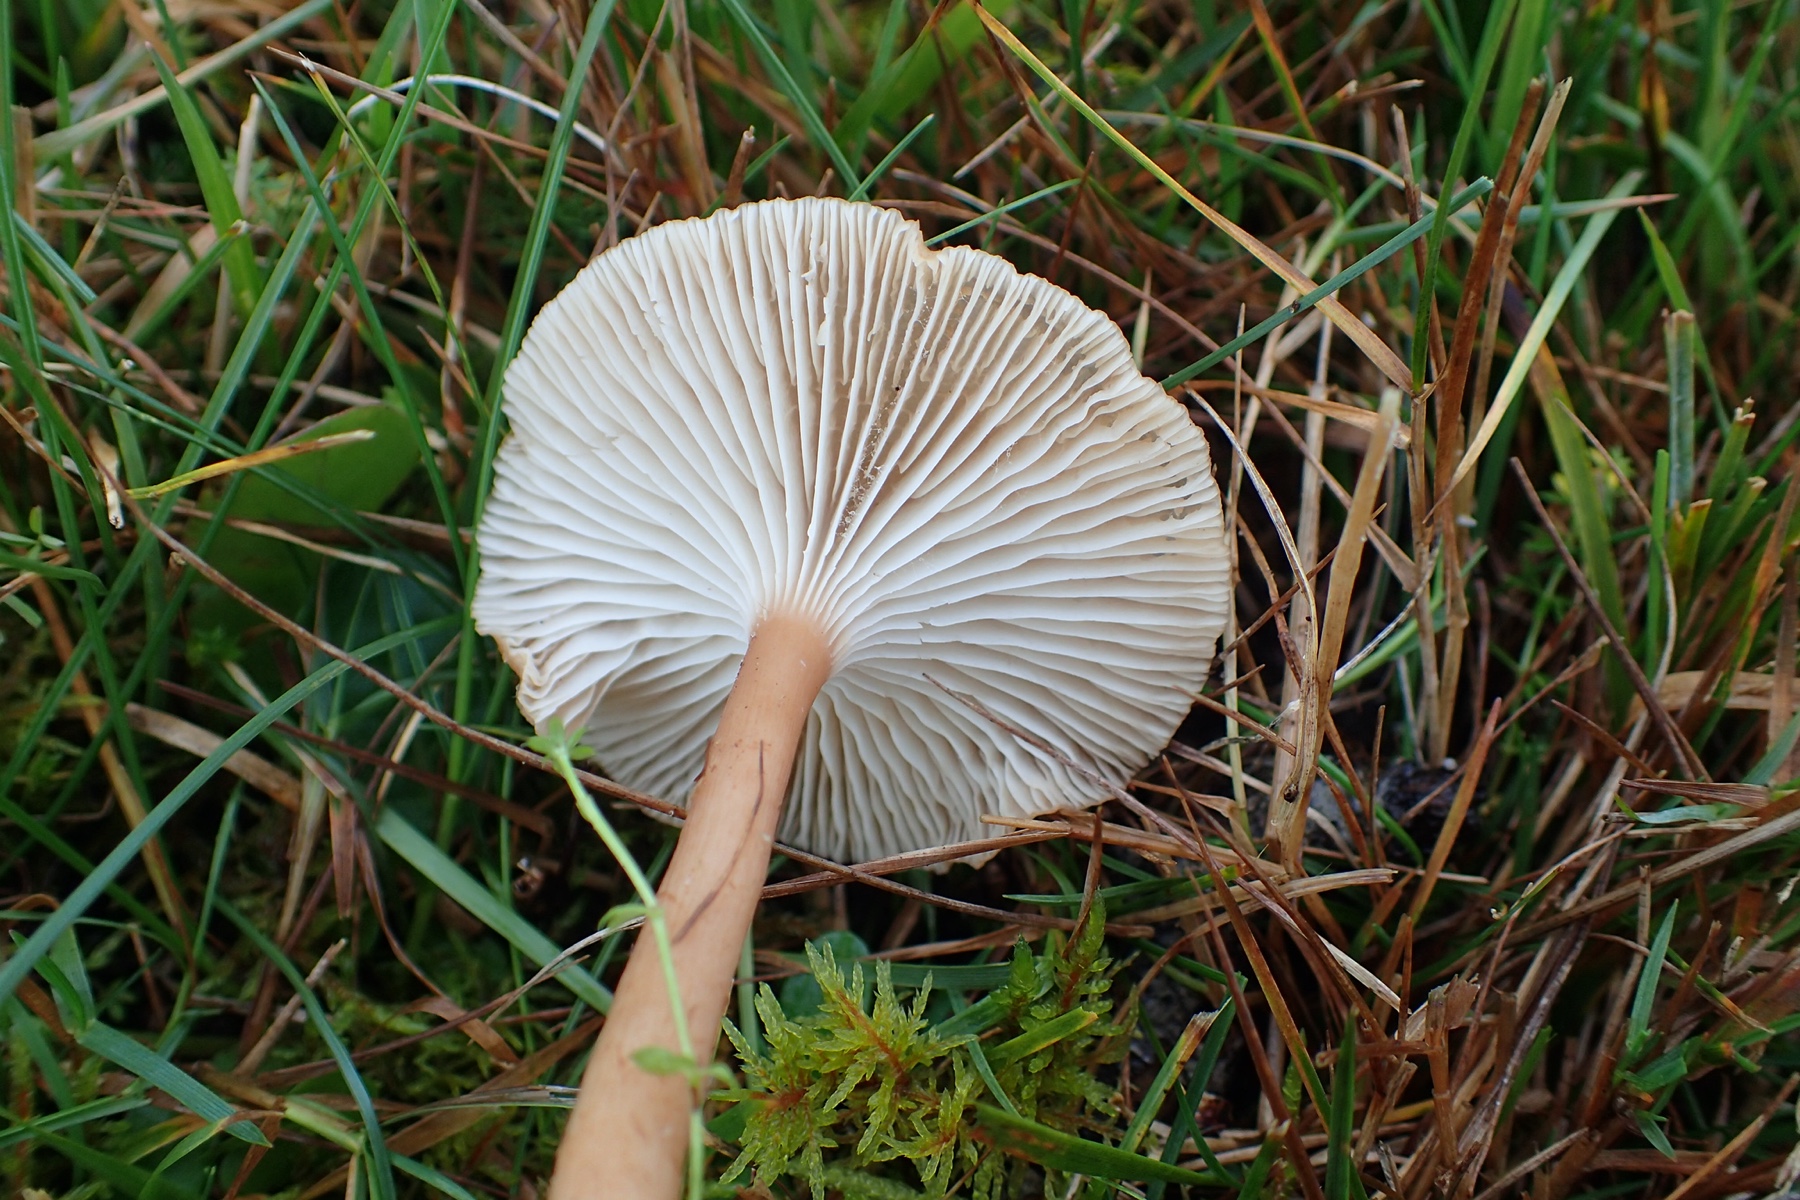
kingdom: Fungi
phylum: Basidiomycota
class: Agaricomycetes
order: Agaricales
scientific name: Agaricales
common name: champignonordenen
